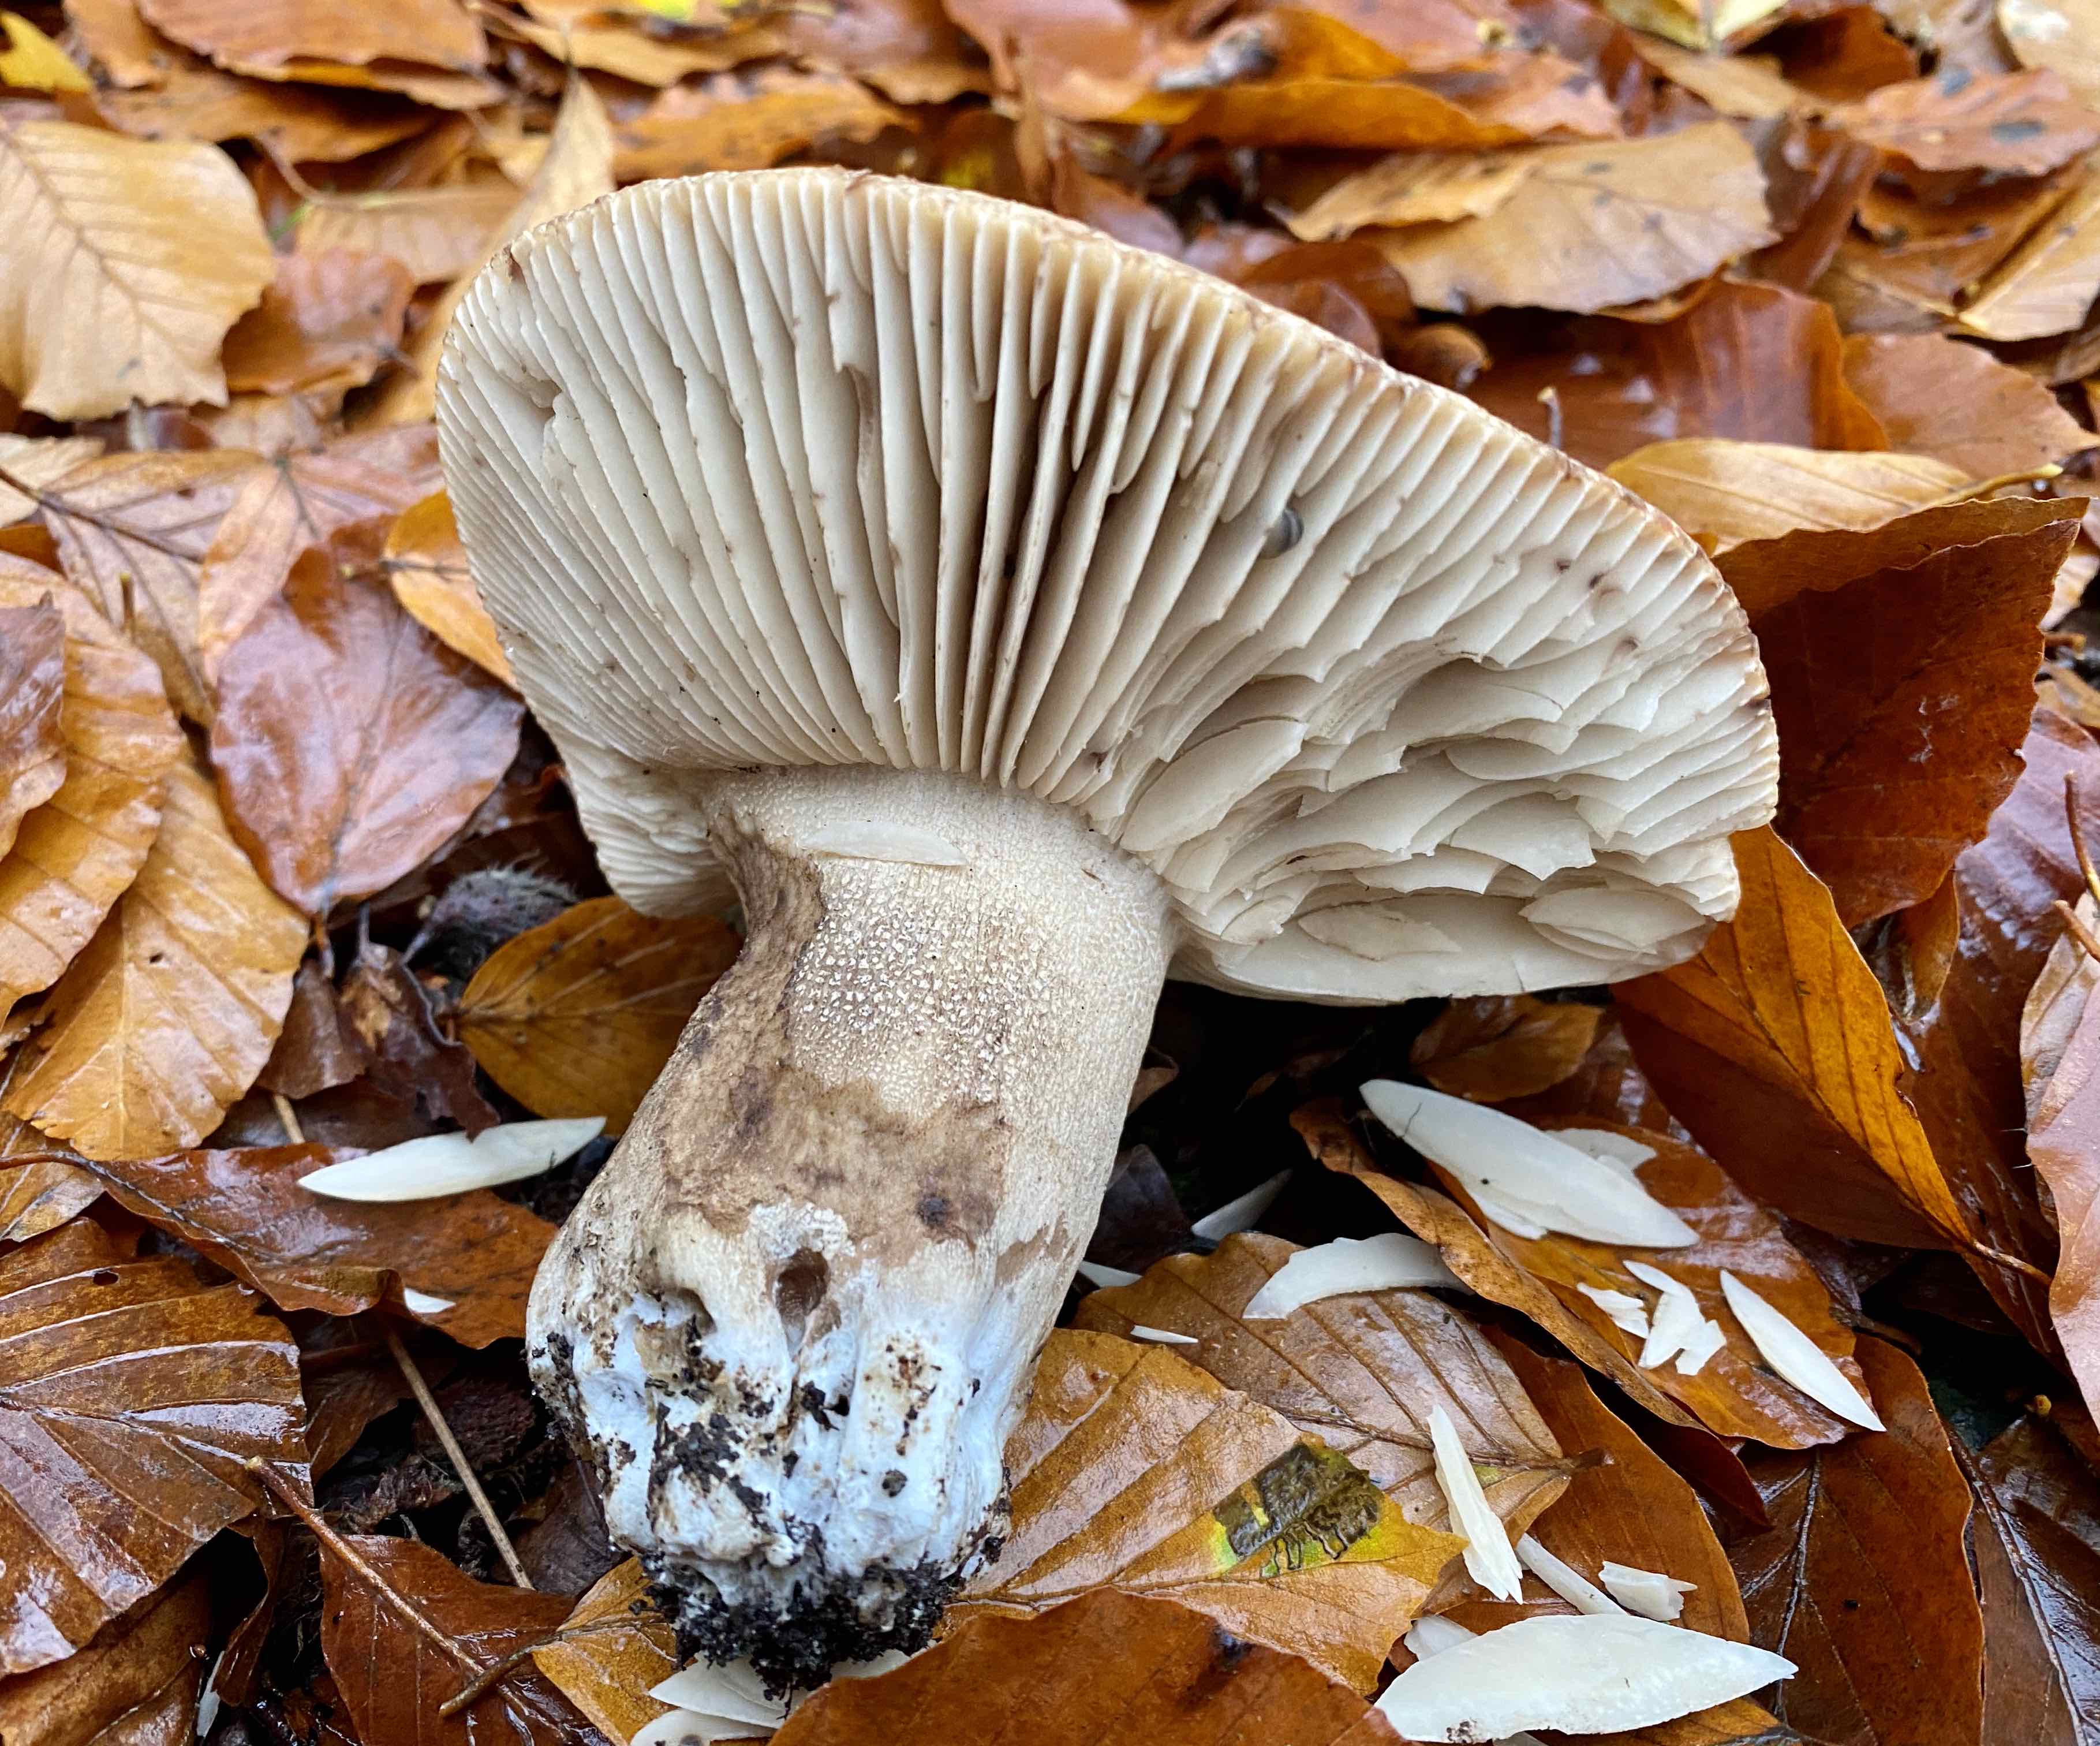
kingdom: Fungi
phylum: Basidiomycota
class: Agaricomycetes
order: Russulales
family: Russulaceae
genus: Russula
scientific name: Russula adusta
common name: sværtende skørhat
